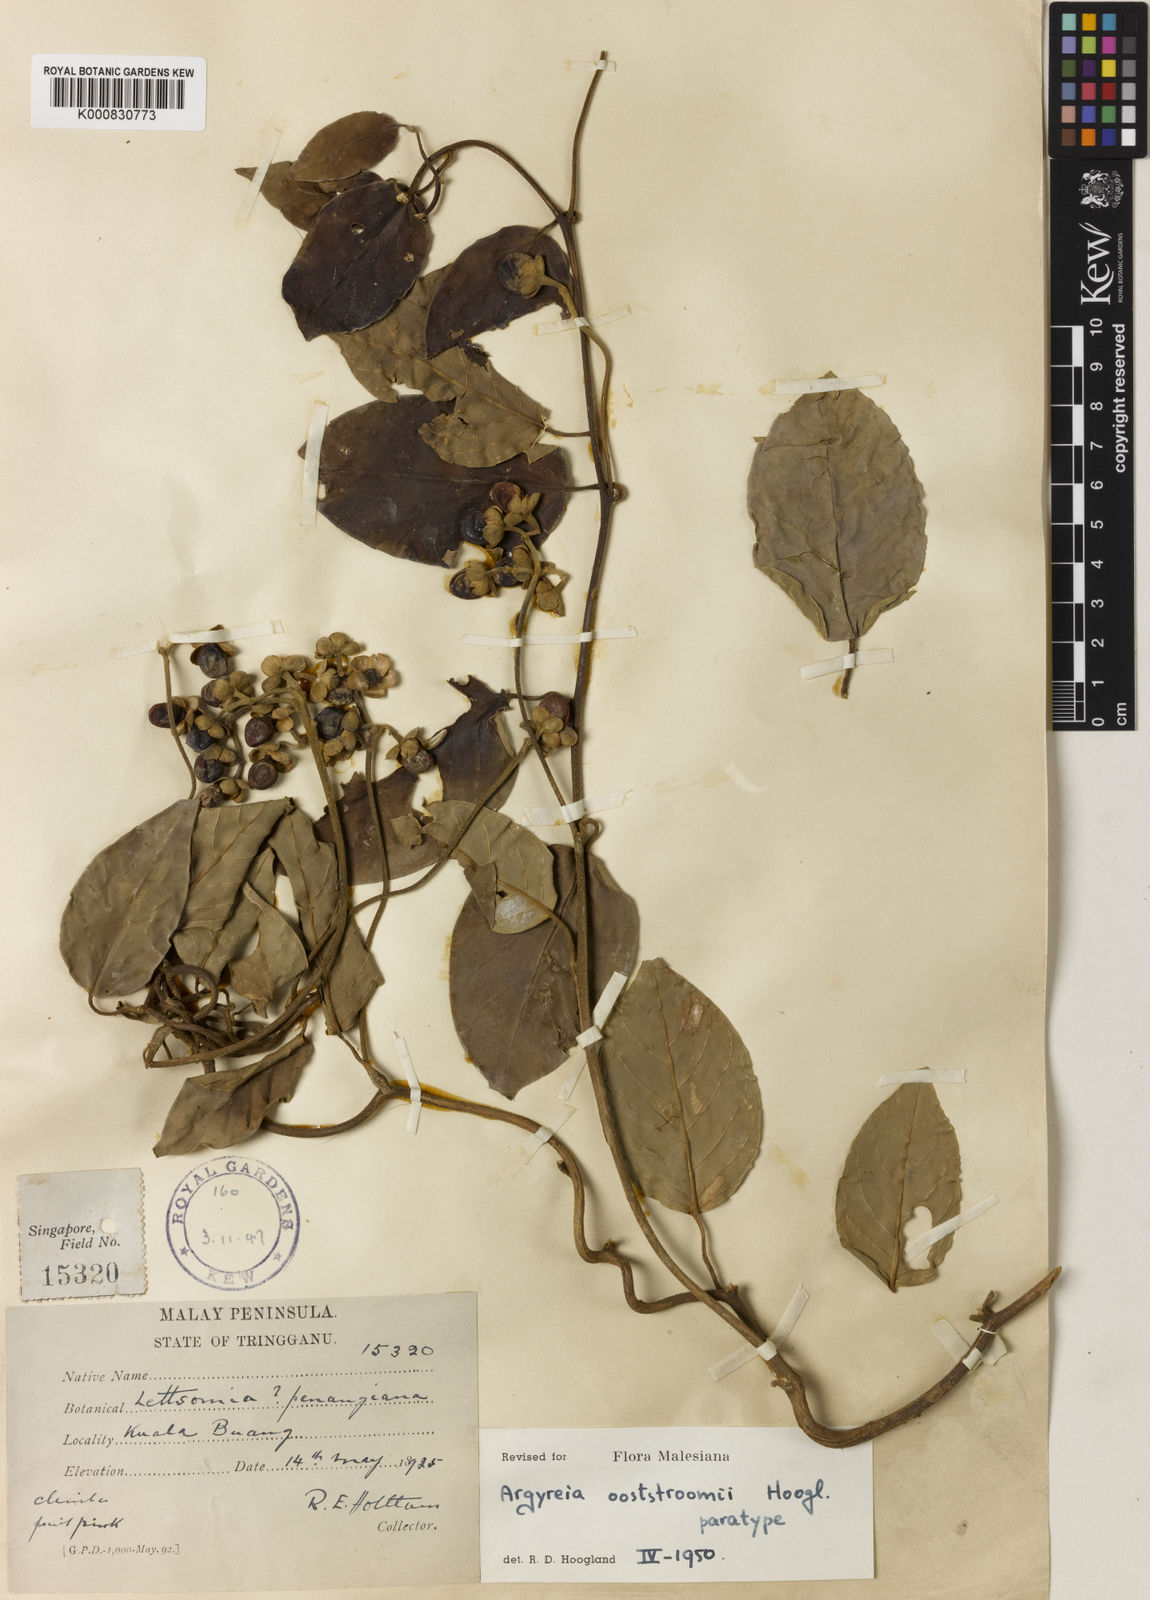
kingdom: Plantae
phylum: Tracheophyta
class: Magnoliopsida
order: Solanales
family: Convolvulaceae
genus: Argyreia
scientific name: Argyreia ooststroomii
